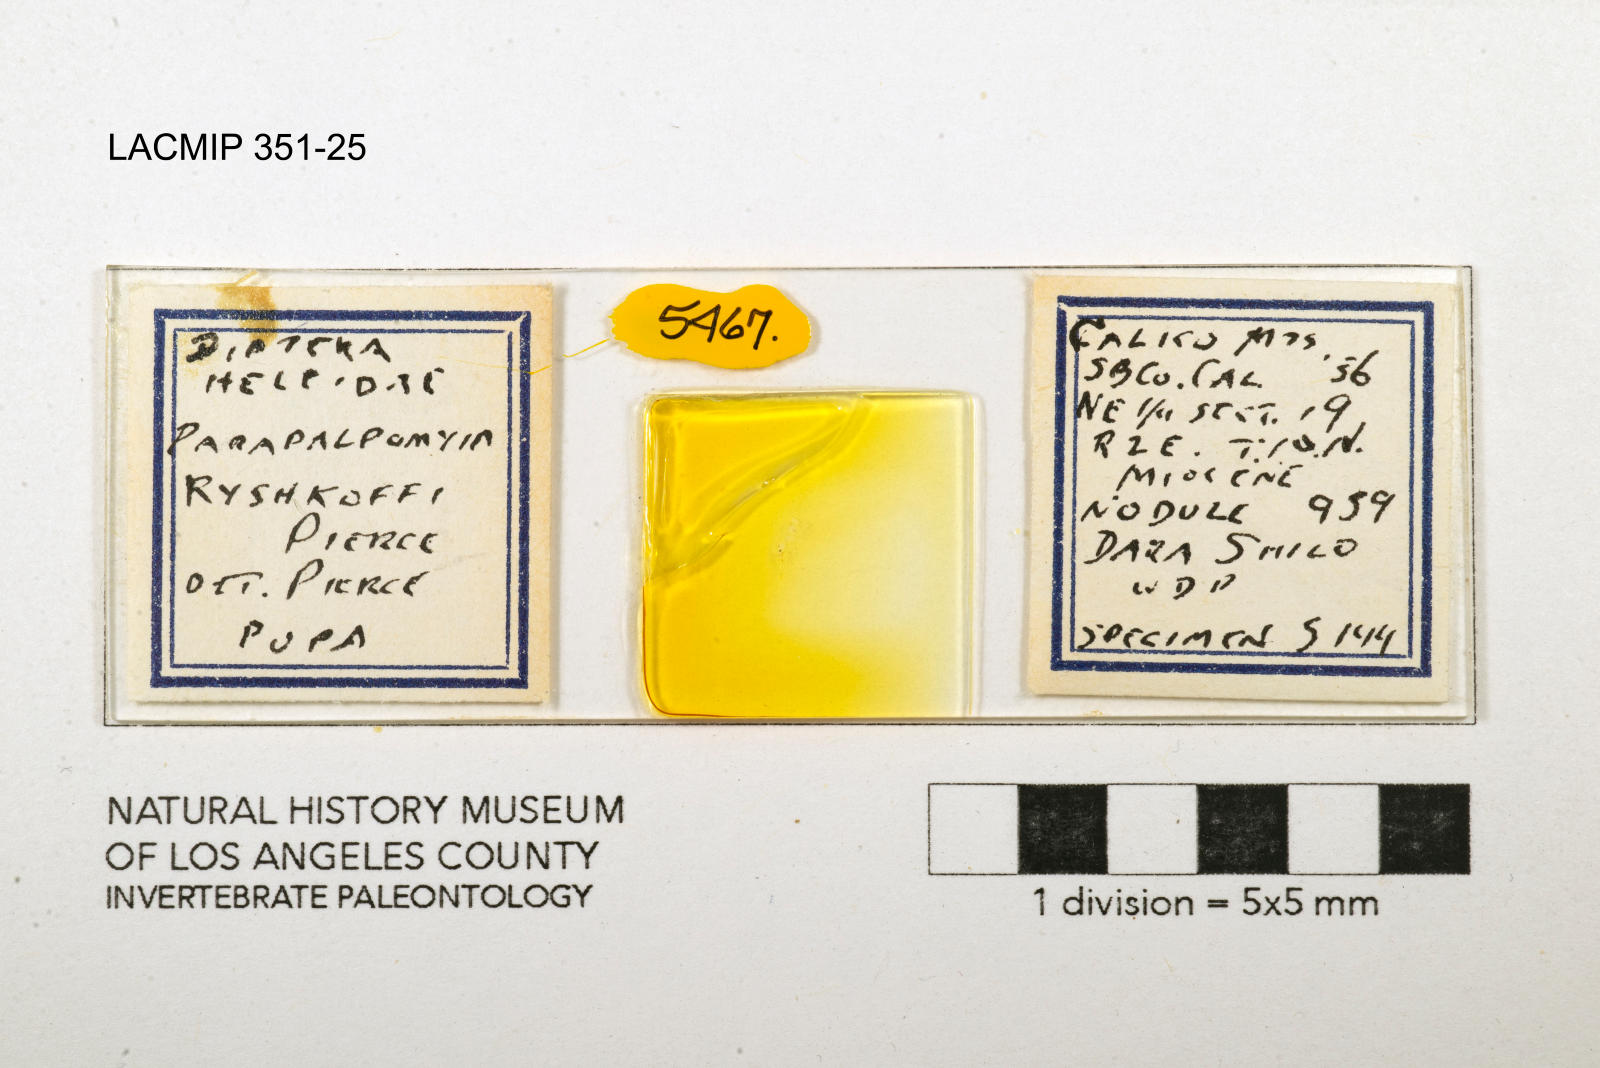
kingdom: Animalia
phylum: Arthropoda
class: Insecta
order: Diptera
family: Ceratopogonidae
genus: Palpomyia
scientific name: Palpomyia ryshkoffi
